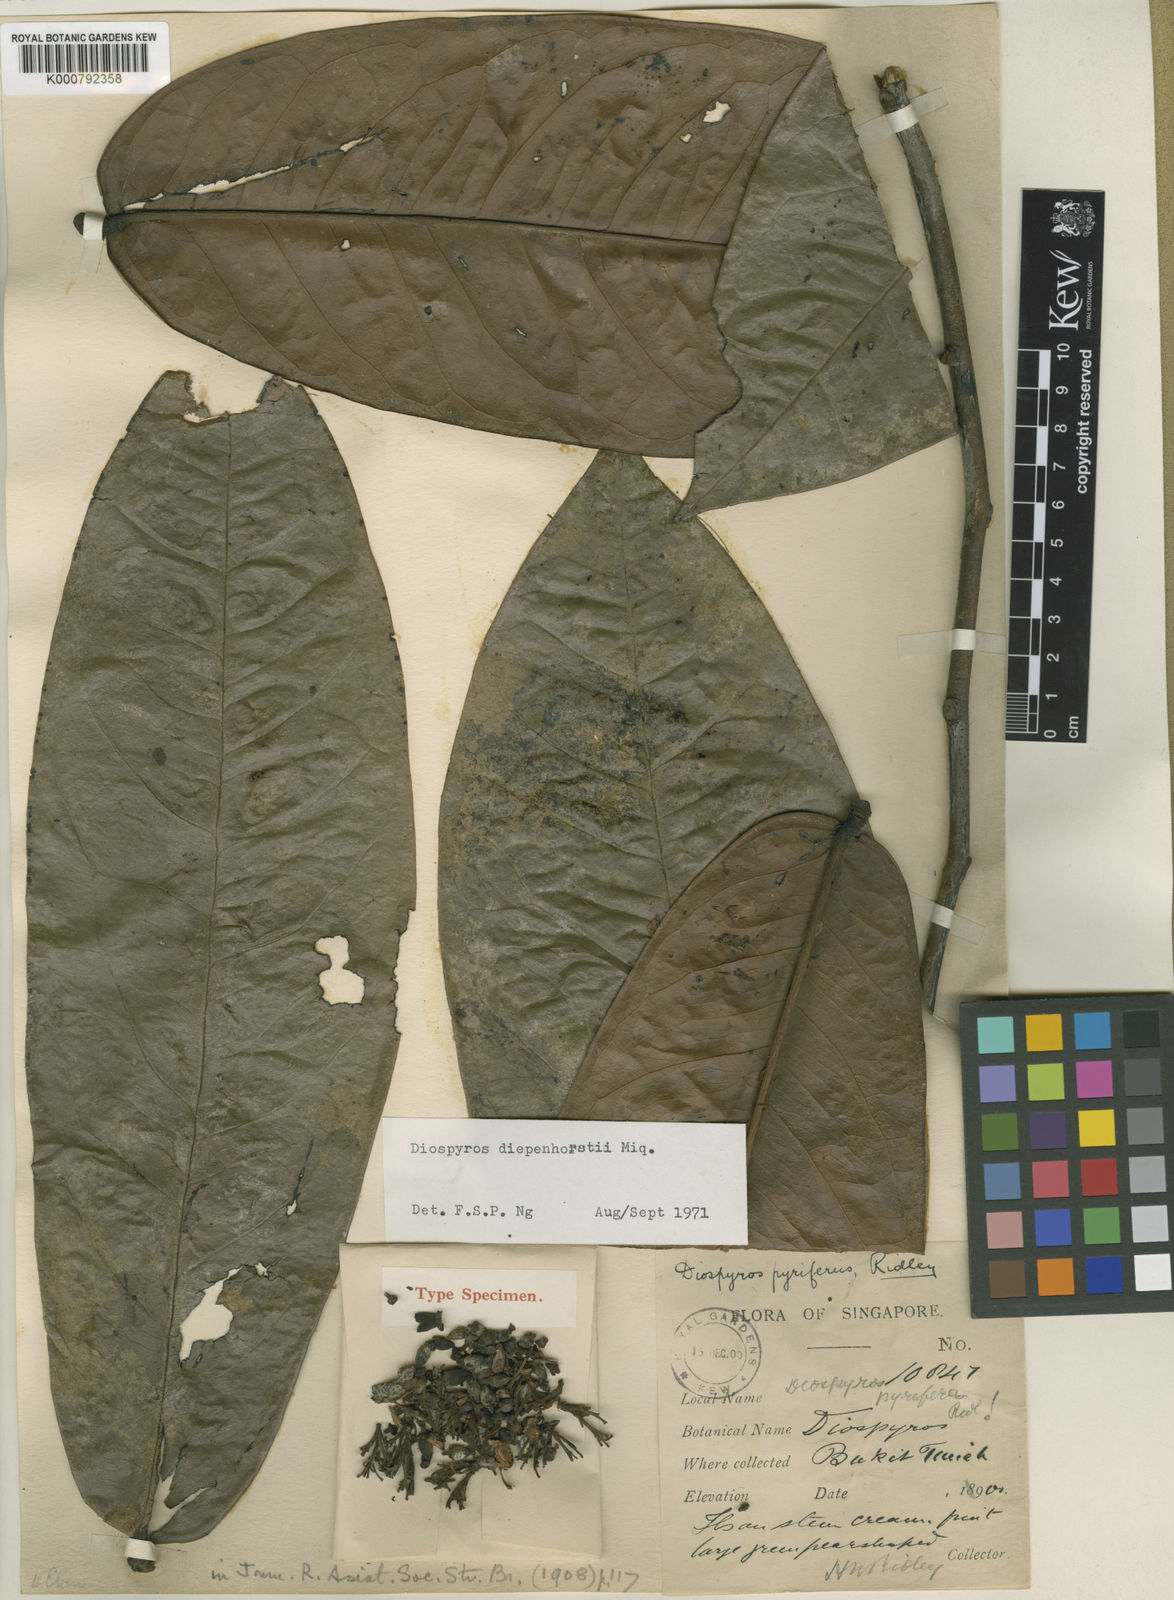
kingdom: Plantae
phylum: Tracheophyta
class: Magnoliopsida
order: Ericales
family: Ebenaceae
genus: Diospyros
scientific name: Diospyros diepenhorstii
